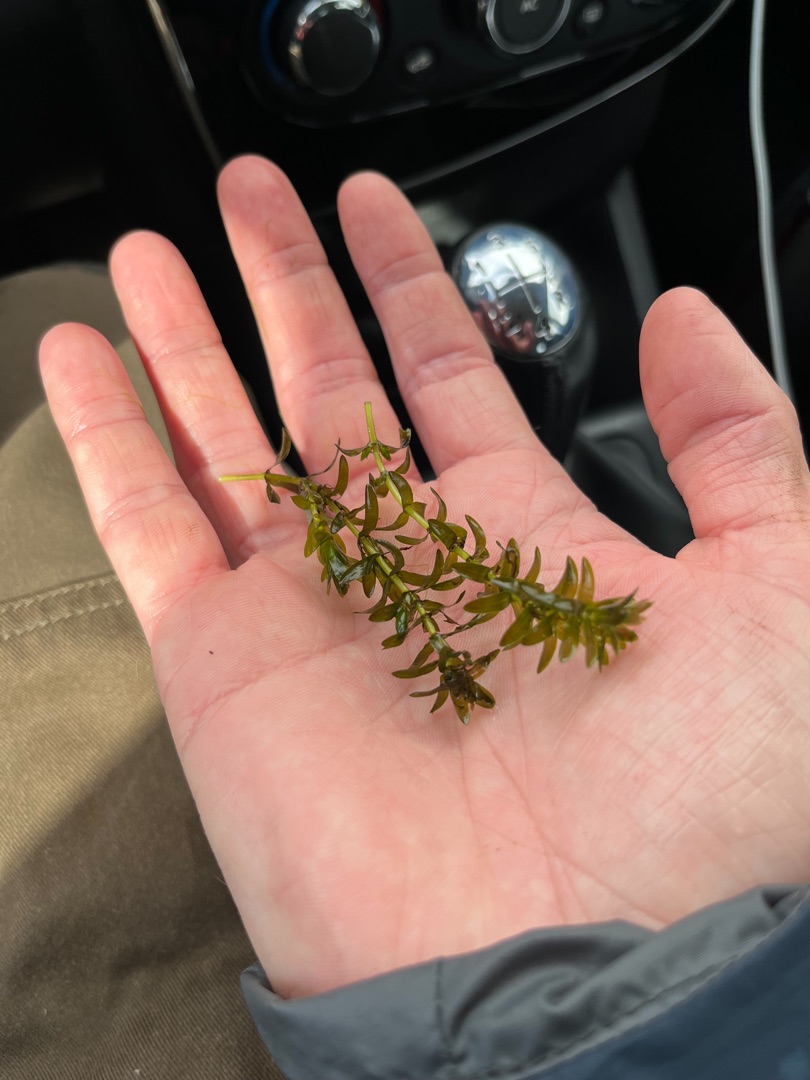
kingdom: Plantae
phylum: Tracheophyta
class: Liliopsida
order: Alismatales
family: Hydrocharitaceae
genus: Elodea
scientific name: Elodea canadensis
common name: Vandpest
